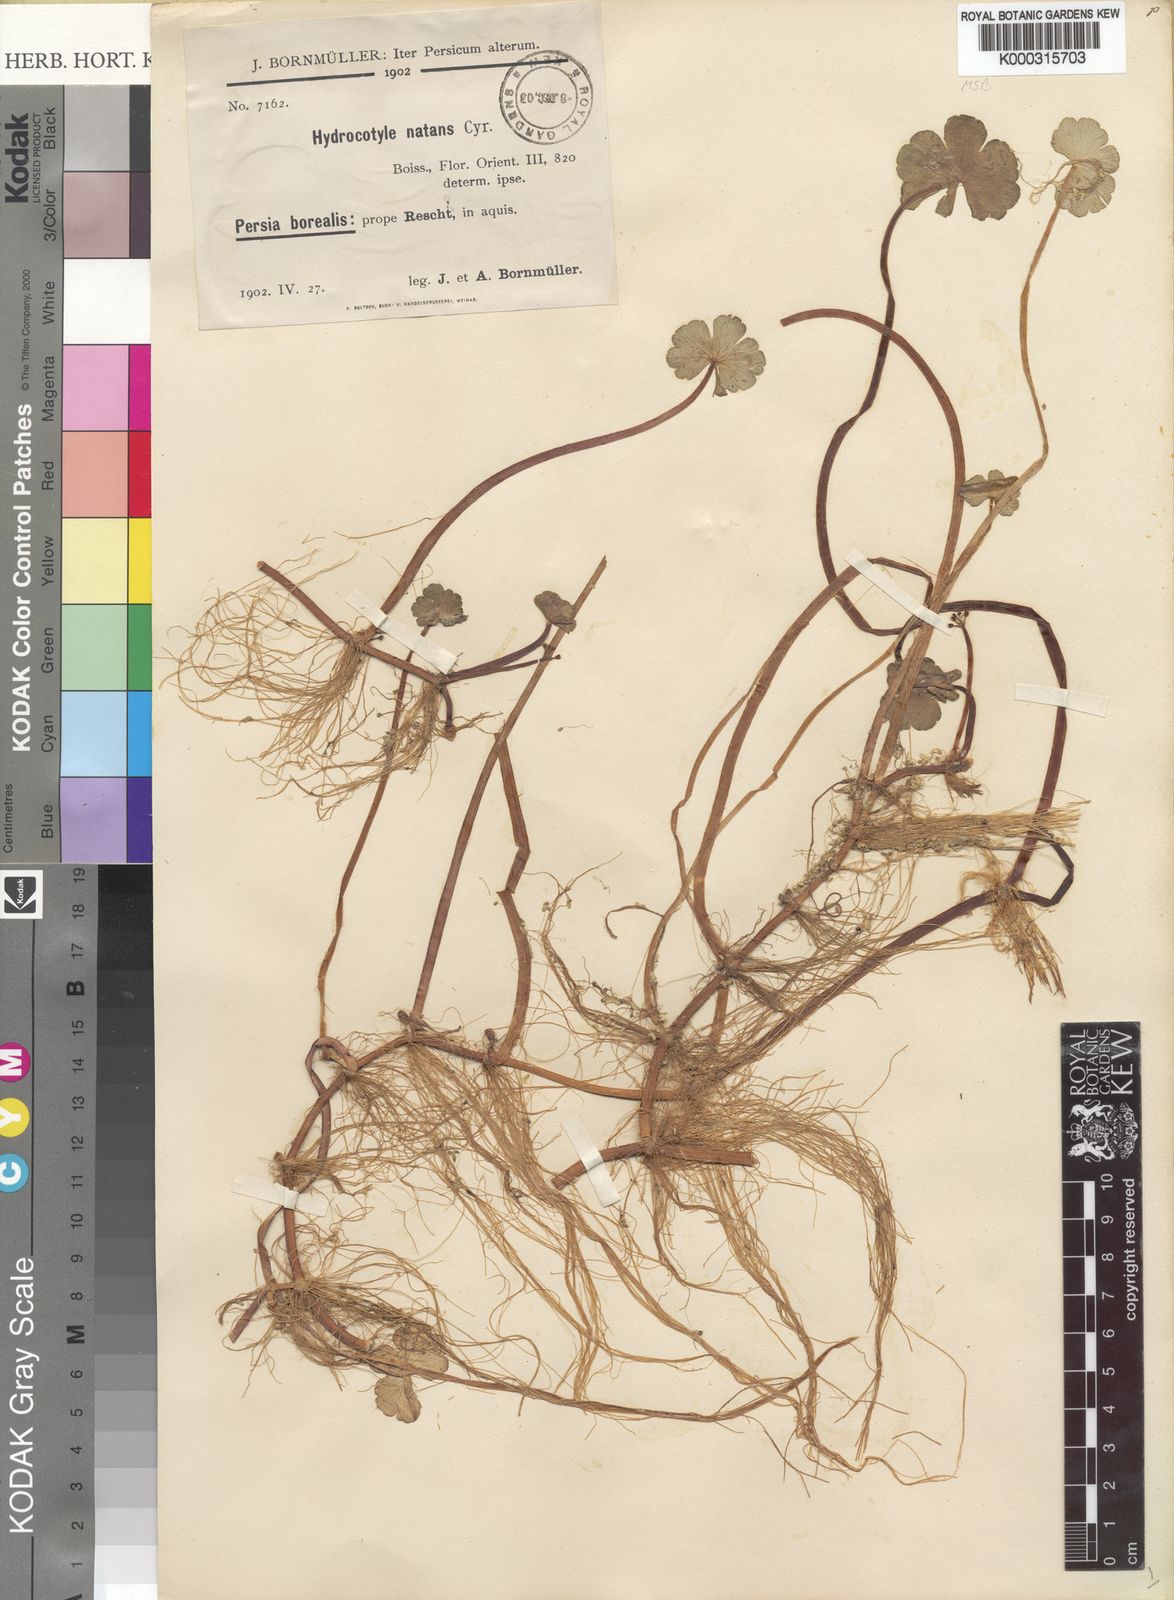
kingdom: Plantae
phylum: Tracheophyta
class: Magnoliopsida
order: Apiales
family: Araliaceae
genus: Hydrocotyle
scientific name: Hydrocotyle ranunculoides
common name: Floating pennywort
